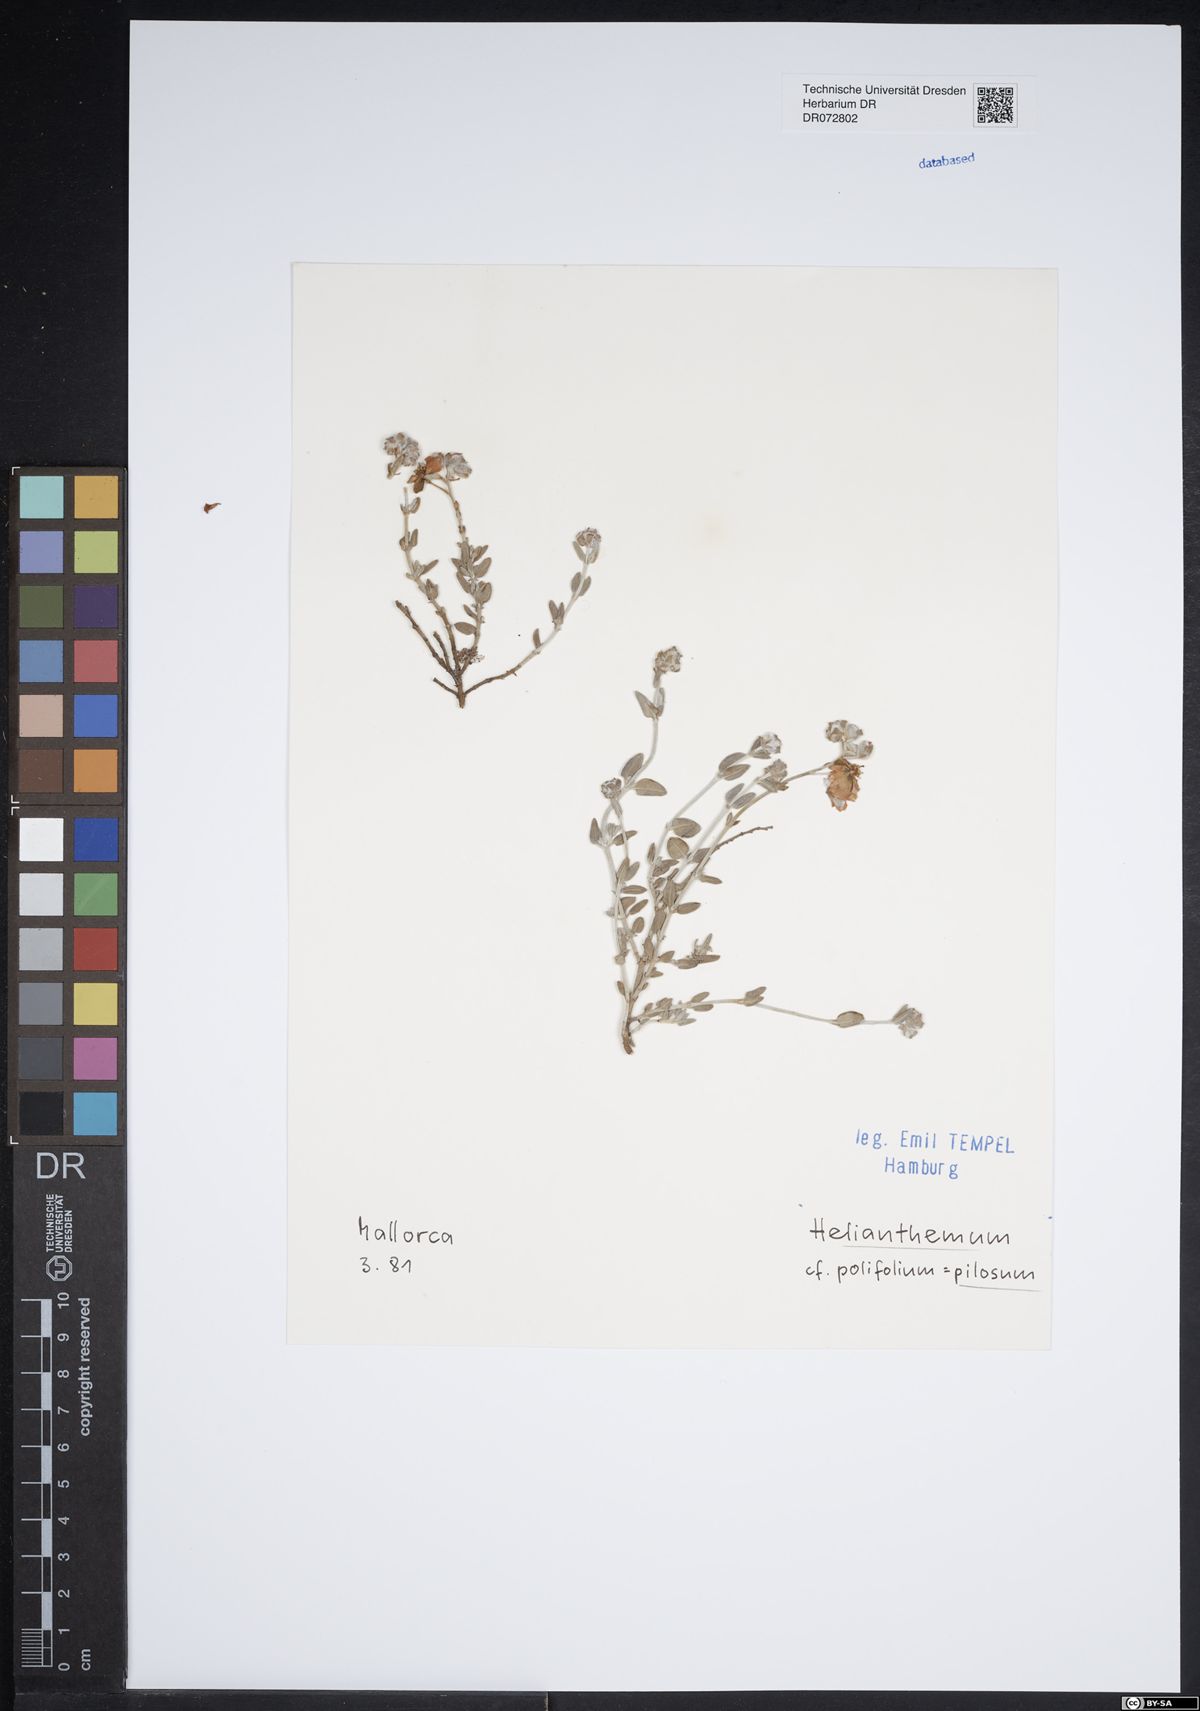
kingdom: Plantae
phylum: Tracheophyta
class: Magnoliopsida
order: Malvales
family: Cistaceae
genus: Fumana
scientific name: Fumana laevis
